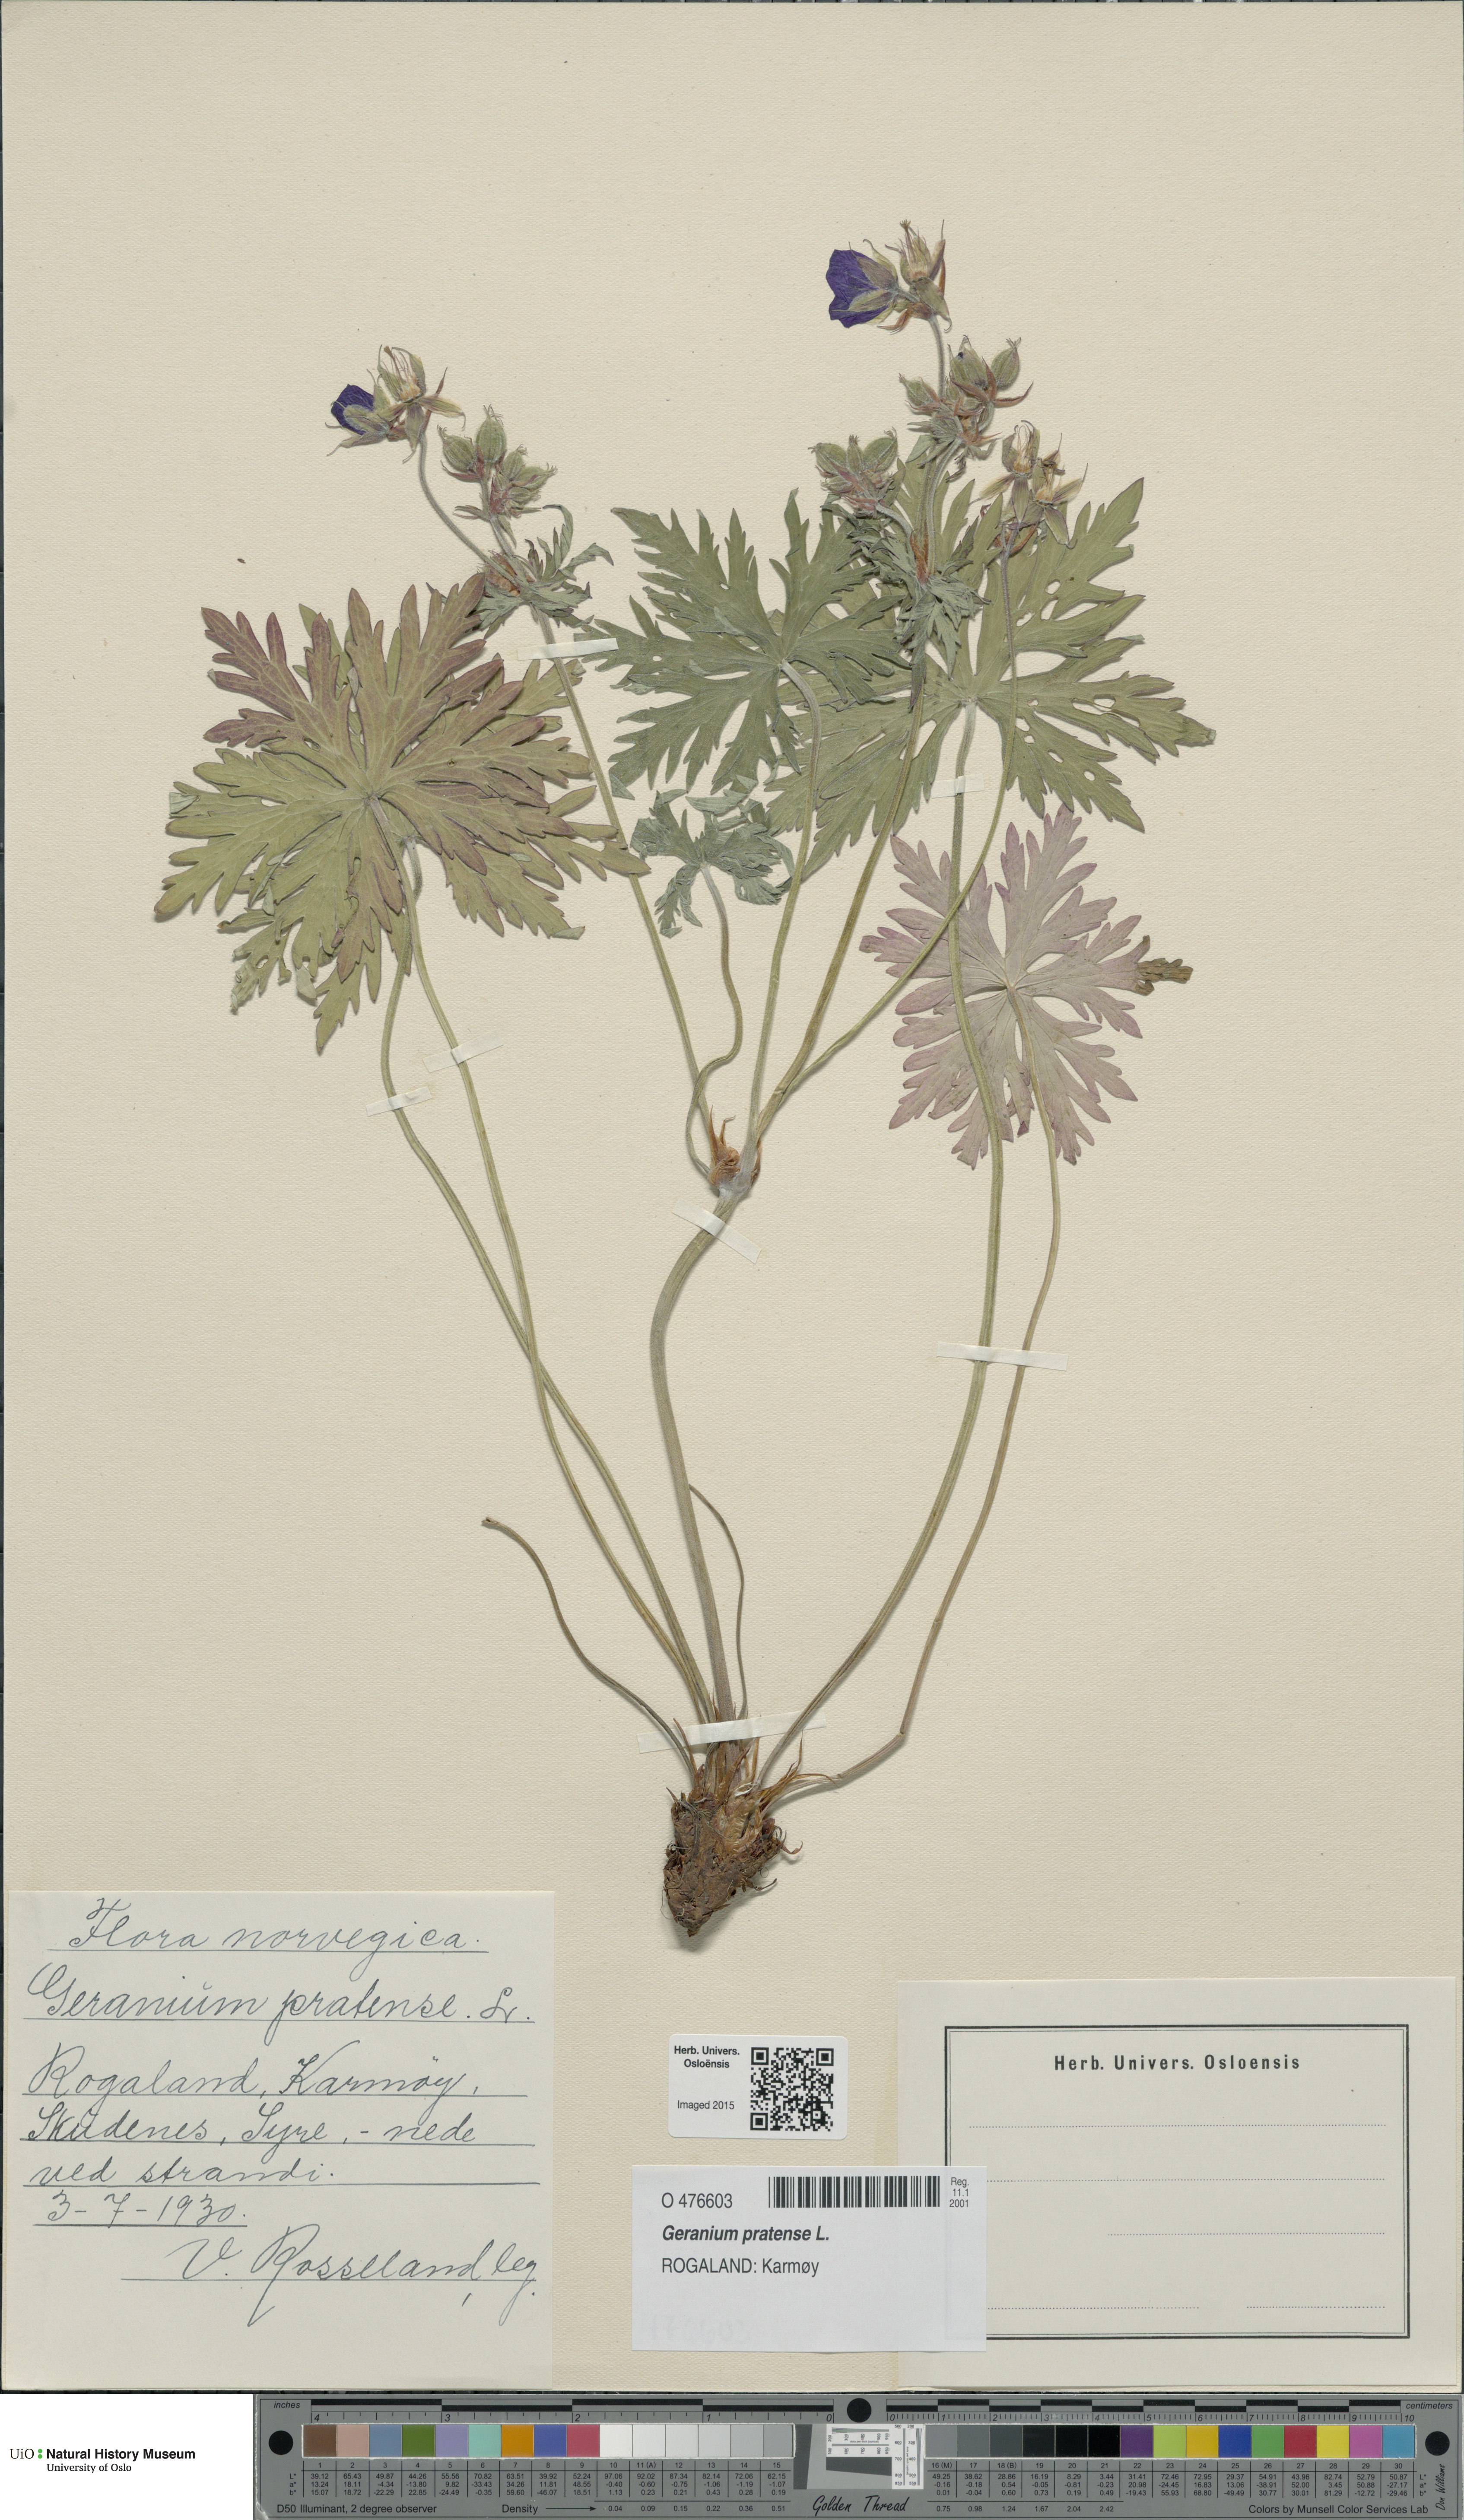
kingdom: Plantae
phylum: Tracheophyta
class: Magnoliopsida
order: Geraniales
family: Geraniaceae
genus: Geranium
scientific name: Geranium pratense
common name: Meadow crane's-bill
